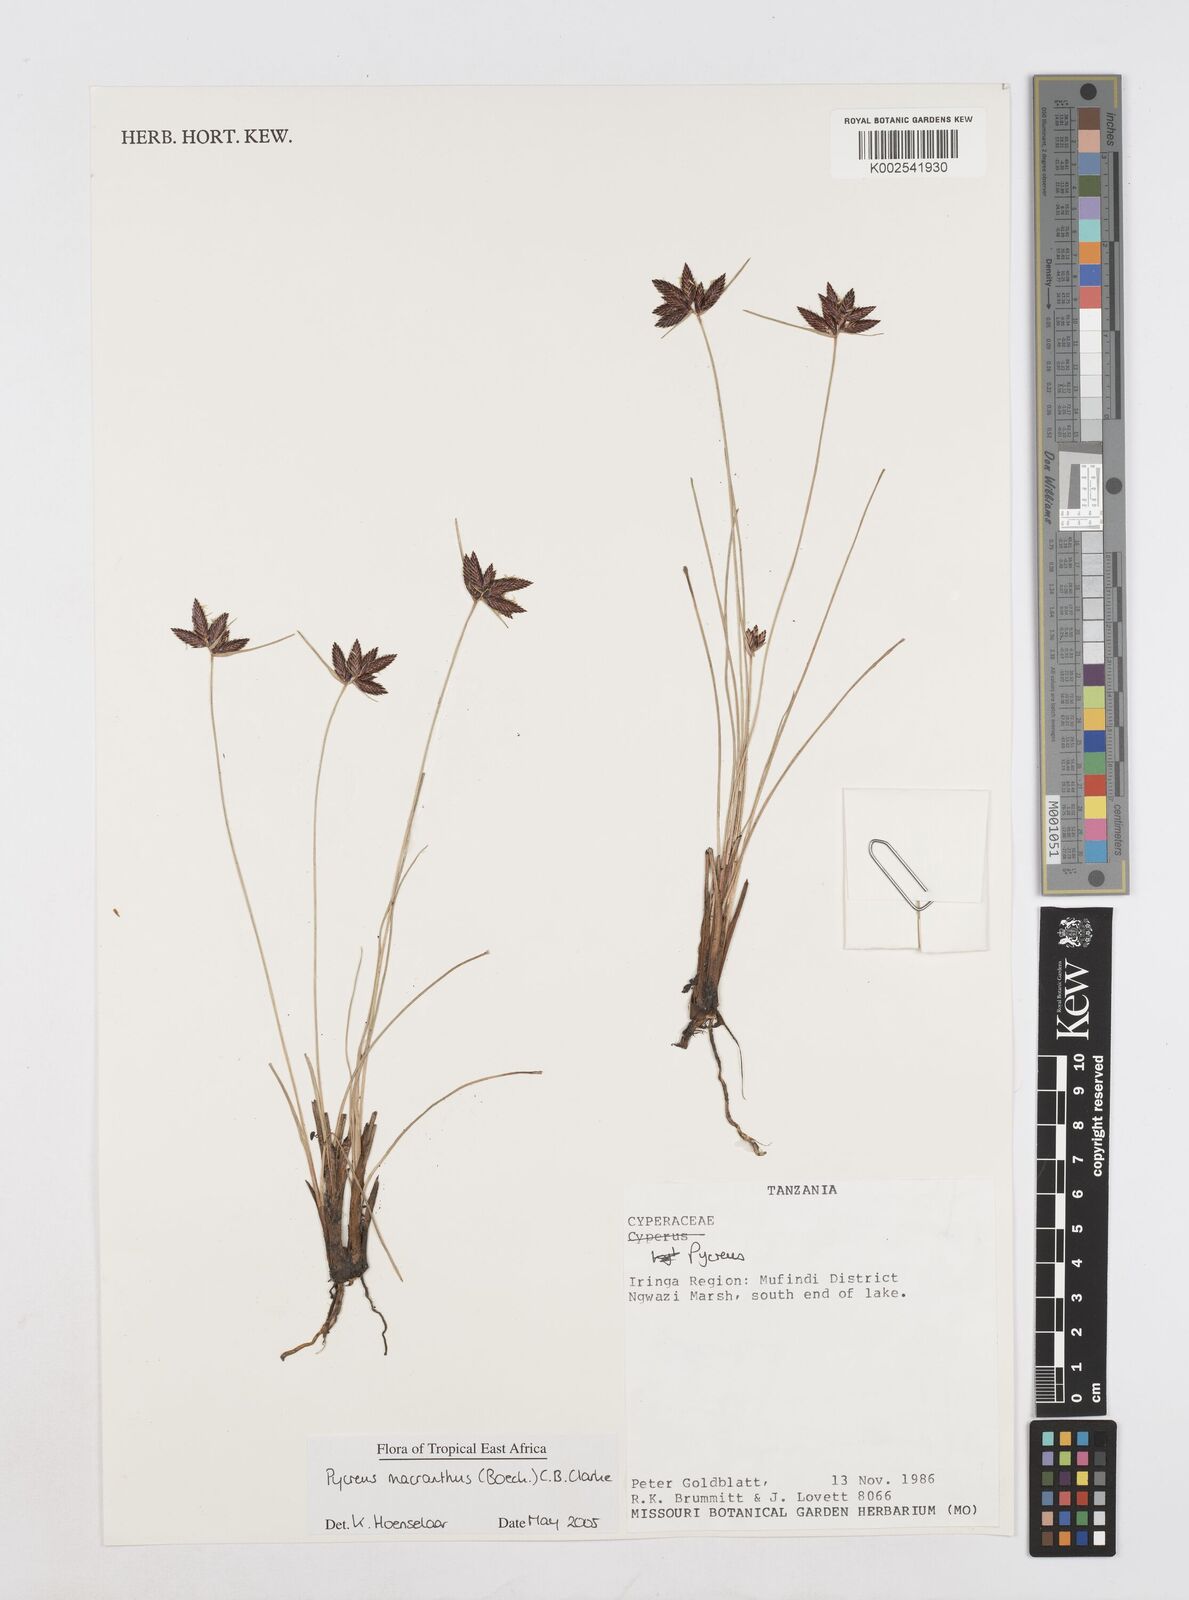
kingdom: Plantae
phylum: Tracheophyta
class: Liliopsida
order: Poales
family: Cyperaceae
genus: Cyperus
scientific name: Cyperus nigricans
